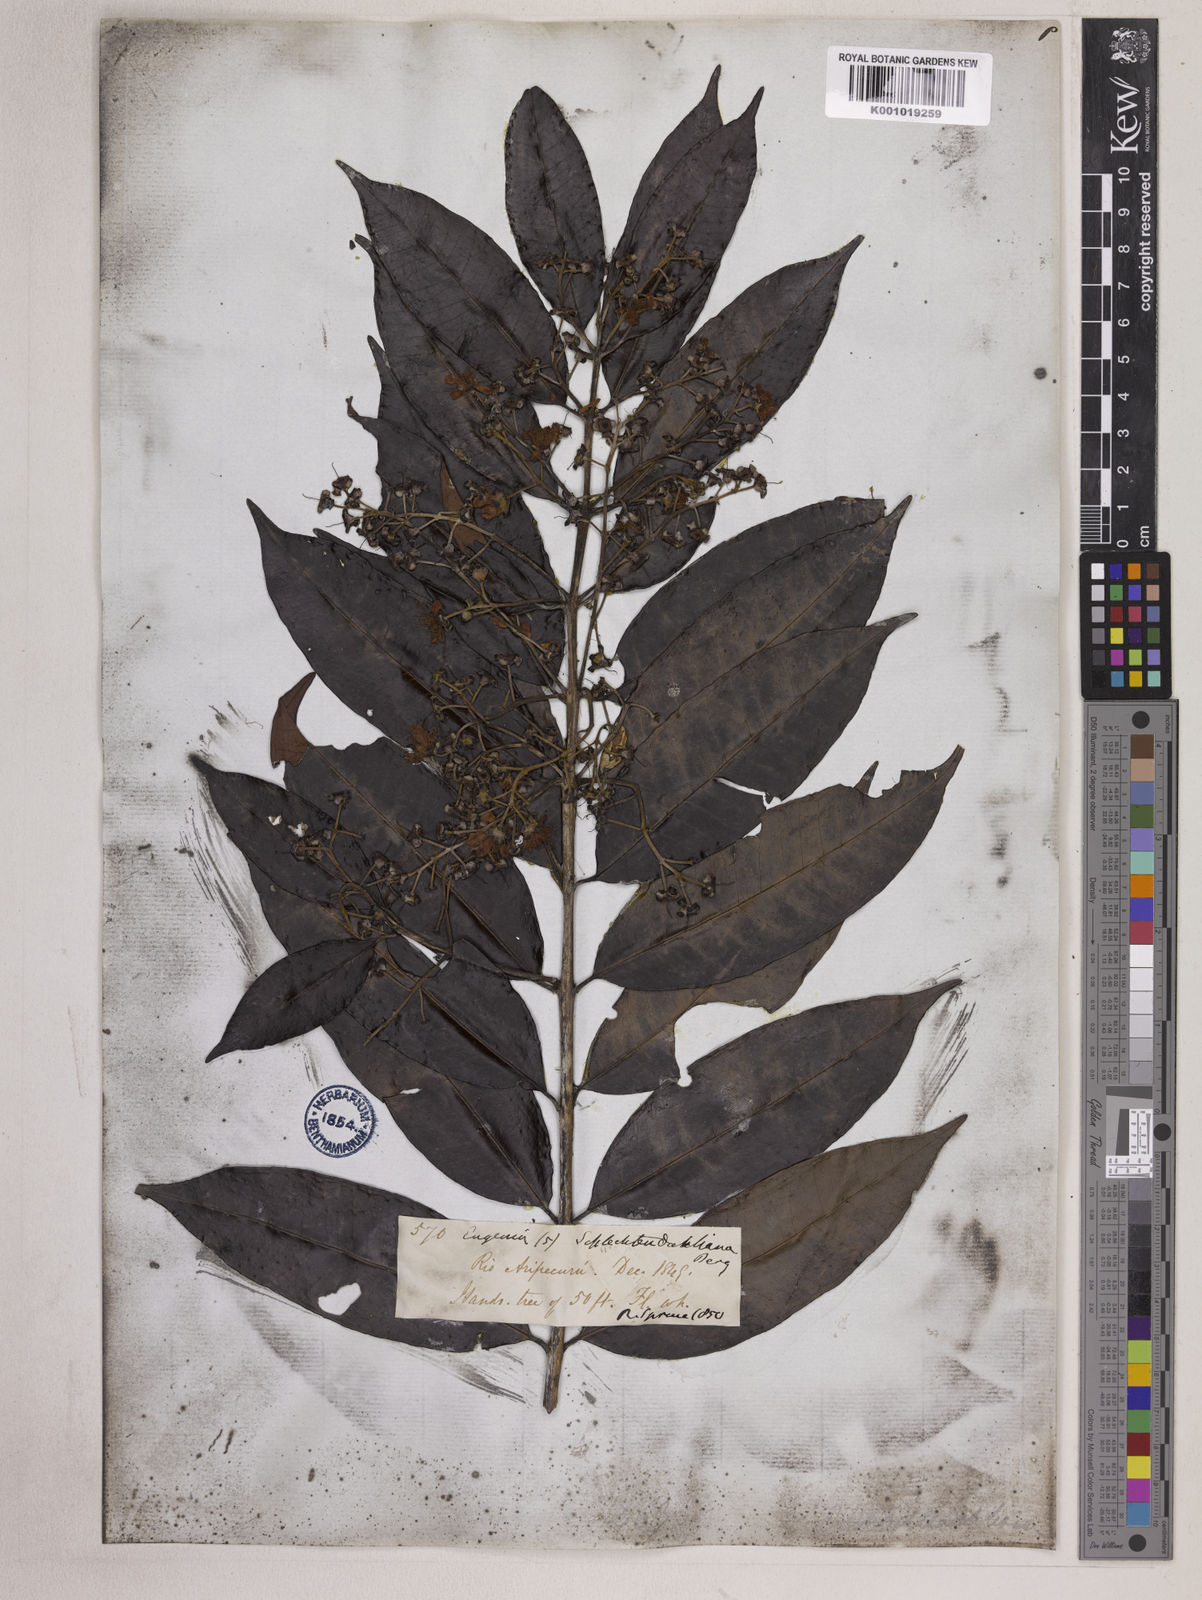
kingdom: Plantae
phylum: Tracheophyta
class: Magnoliopsida
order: Myrtales
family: Myrtaceae
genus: Eugenia
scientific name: Eugenia patens
